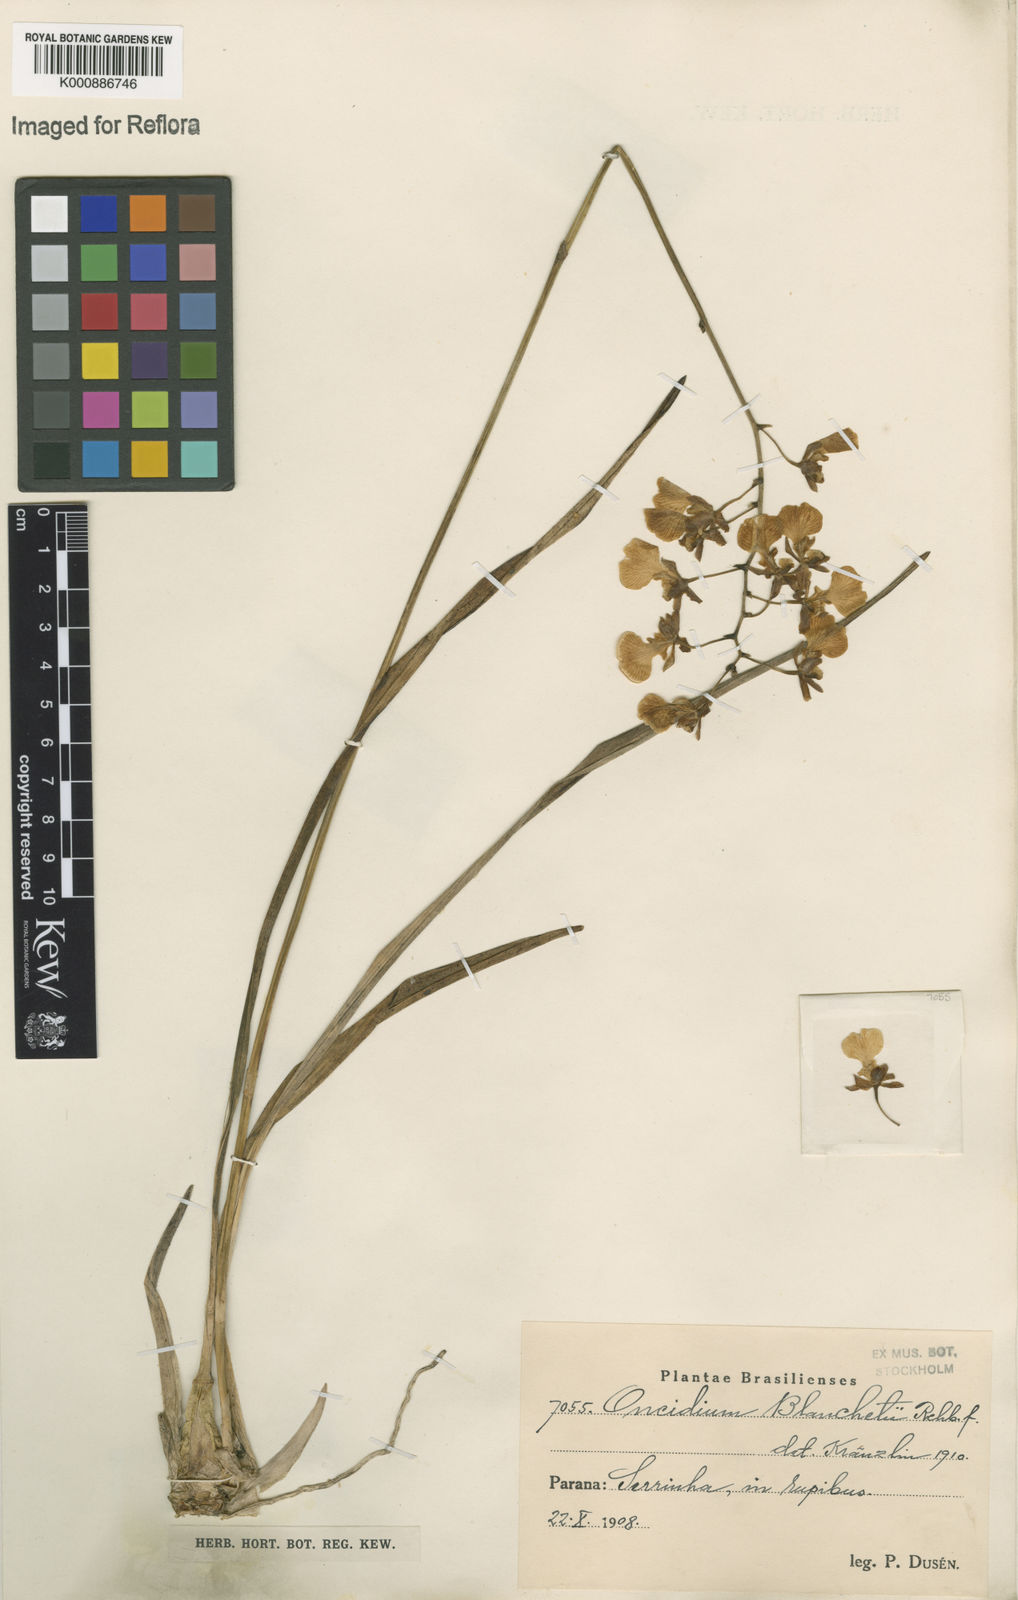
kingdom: Plantae
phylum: Tracheophyta
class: Liliopsida
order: Asparagales
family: Orchidaceae
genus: Gomesa
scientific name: Gomesa barbaceniae
